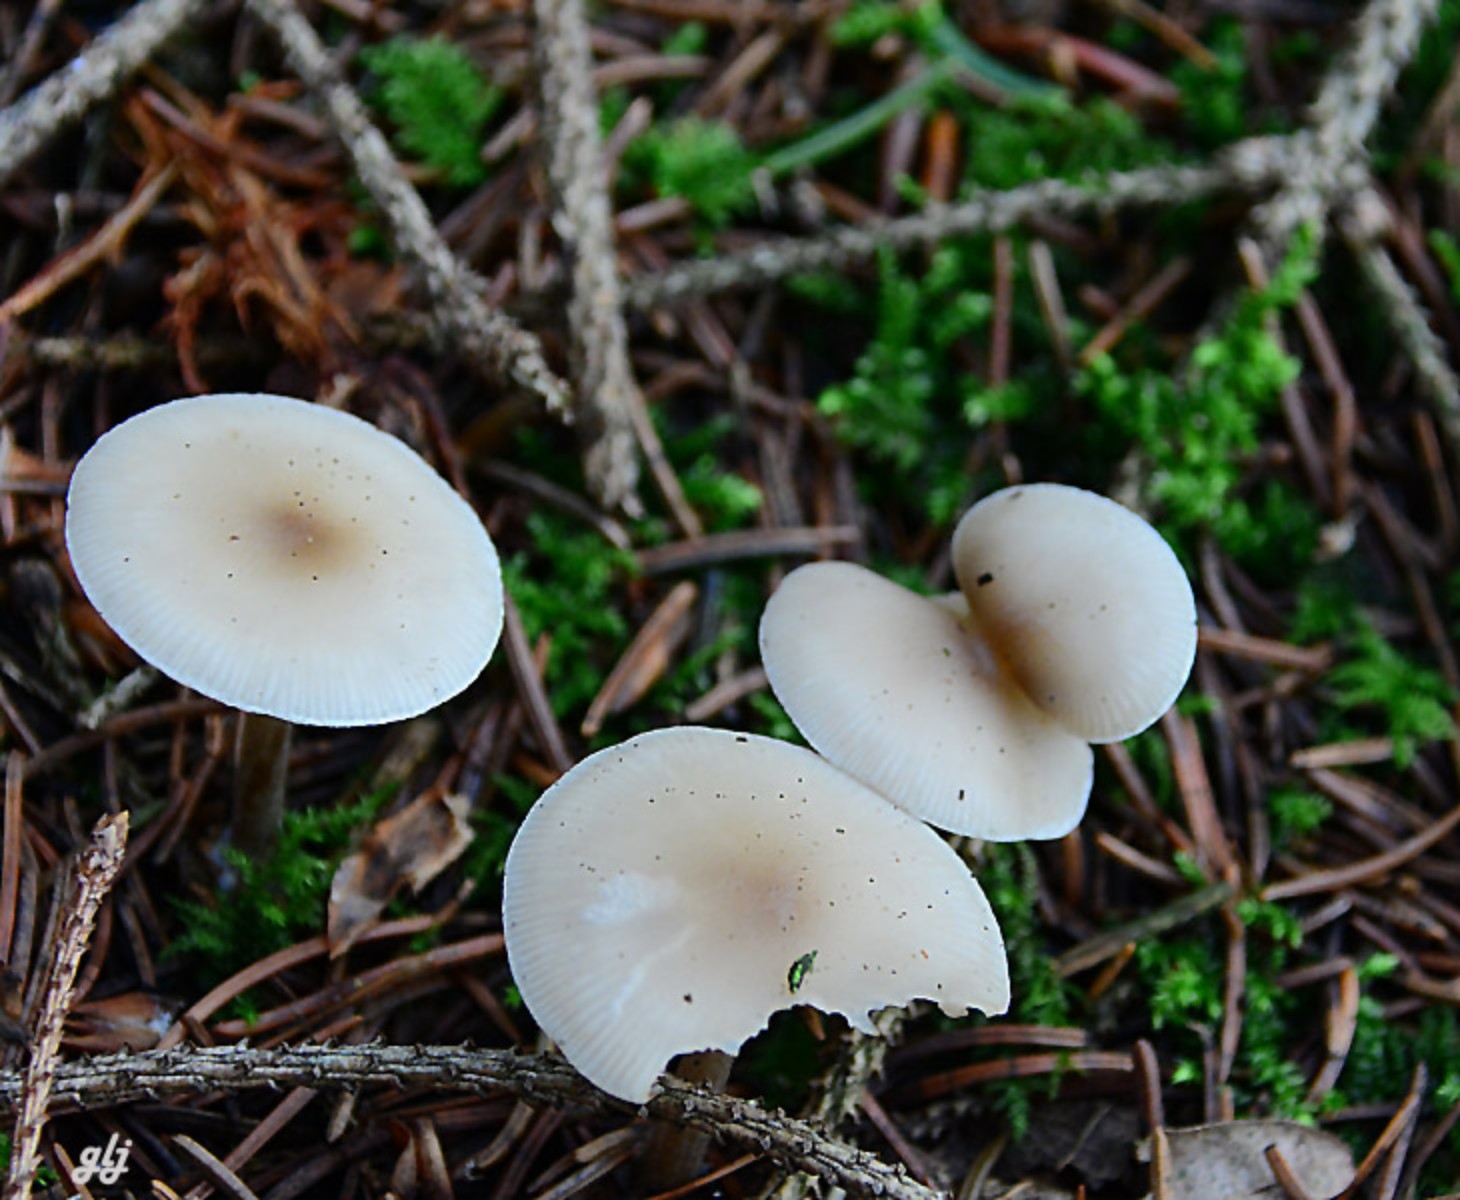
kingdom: Fungi
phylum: Basidiomycota
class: Agaricomycetes
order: Agaricales
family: Tricholomataceae
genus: Clitocybe
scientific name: Clitocybe metachroa
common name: grå tragthat
